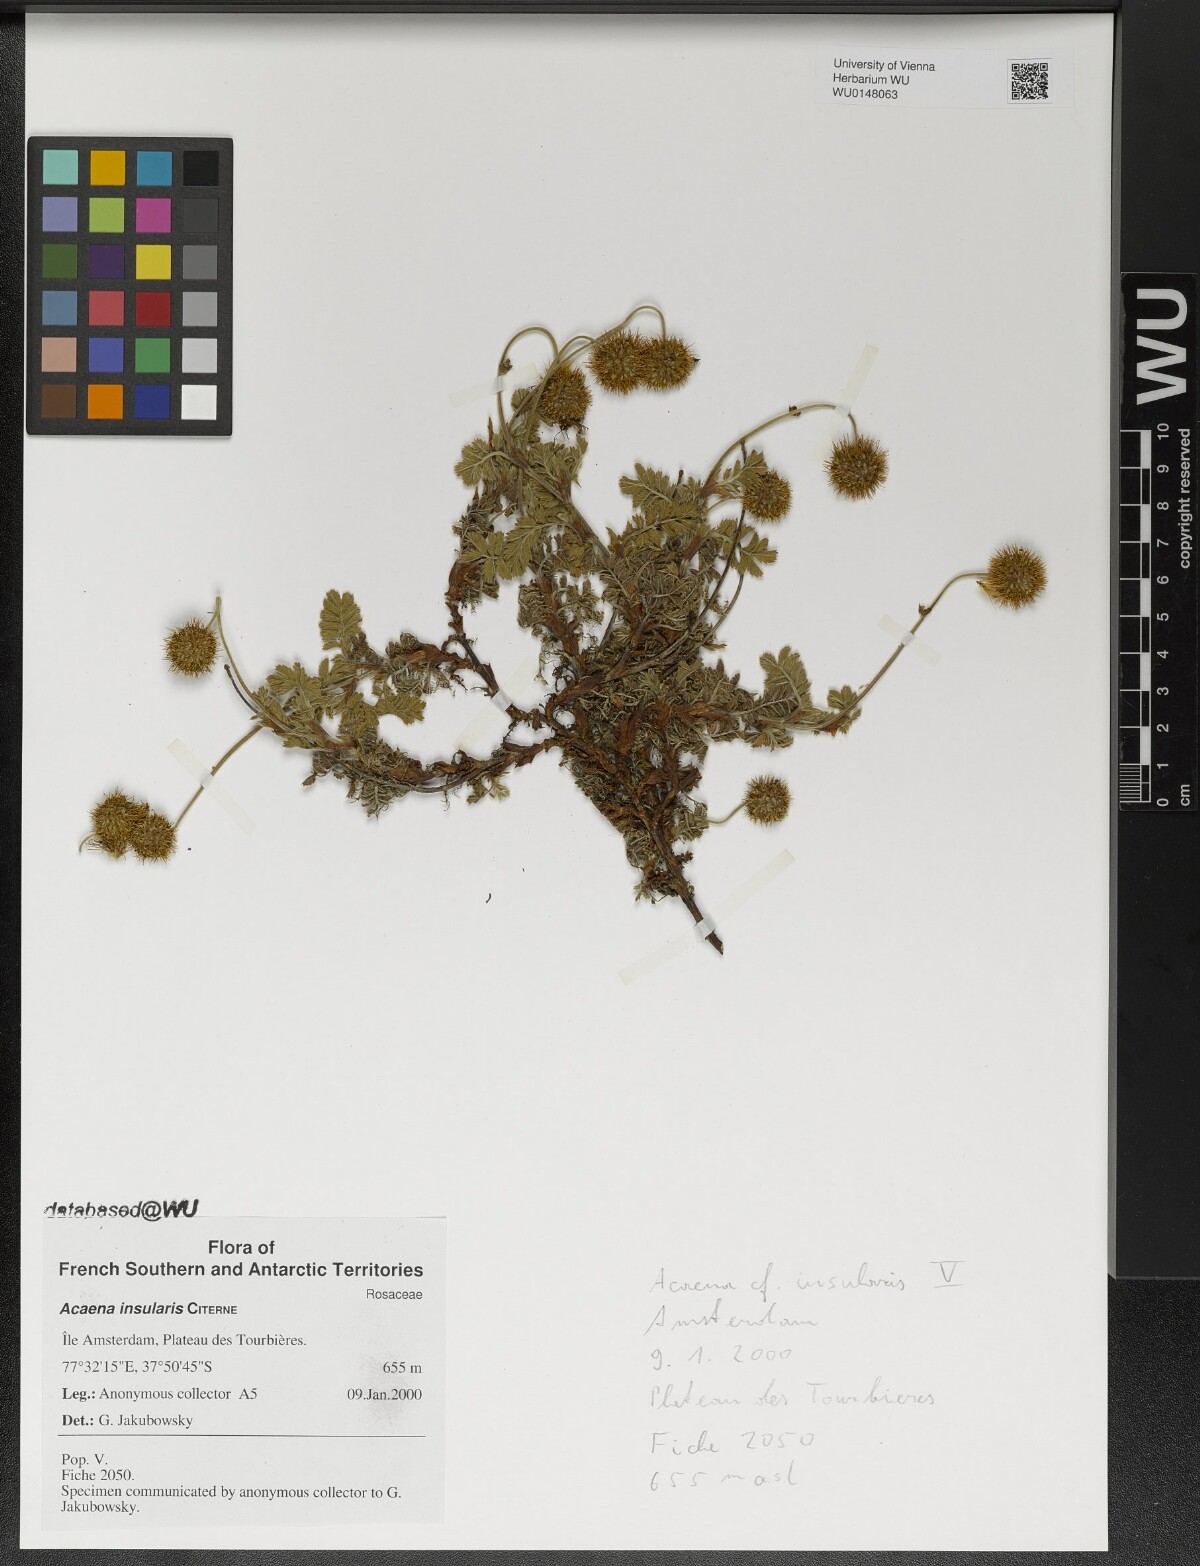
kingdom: Plantae
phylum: Tracheophyta
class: Magnoliopsida
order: Rosales
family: Rosaceae
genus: Acaena
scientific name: Acaena insularis
